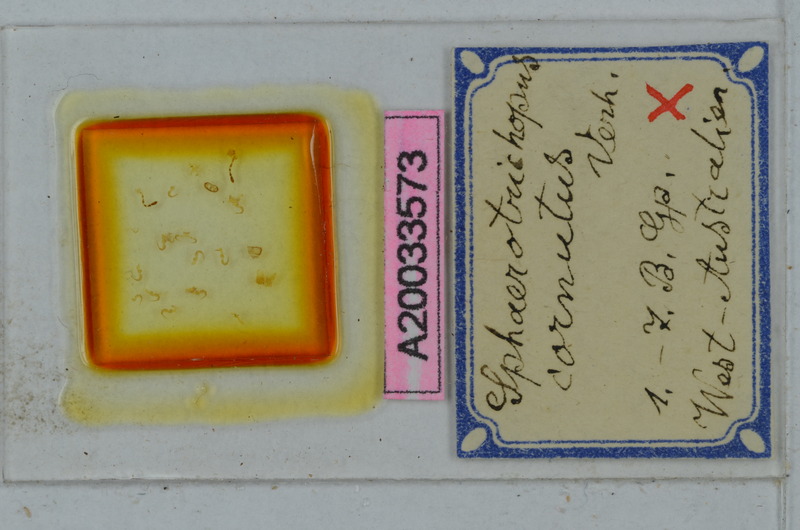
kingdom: Animalia
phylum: Arthropoda
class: Diplopoda
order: Polydesmida
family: Dalodesmidae
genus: Sphaerotrichopus
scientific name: Sphaerotrichopus cornutus
